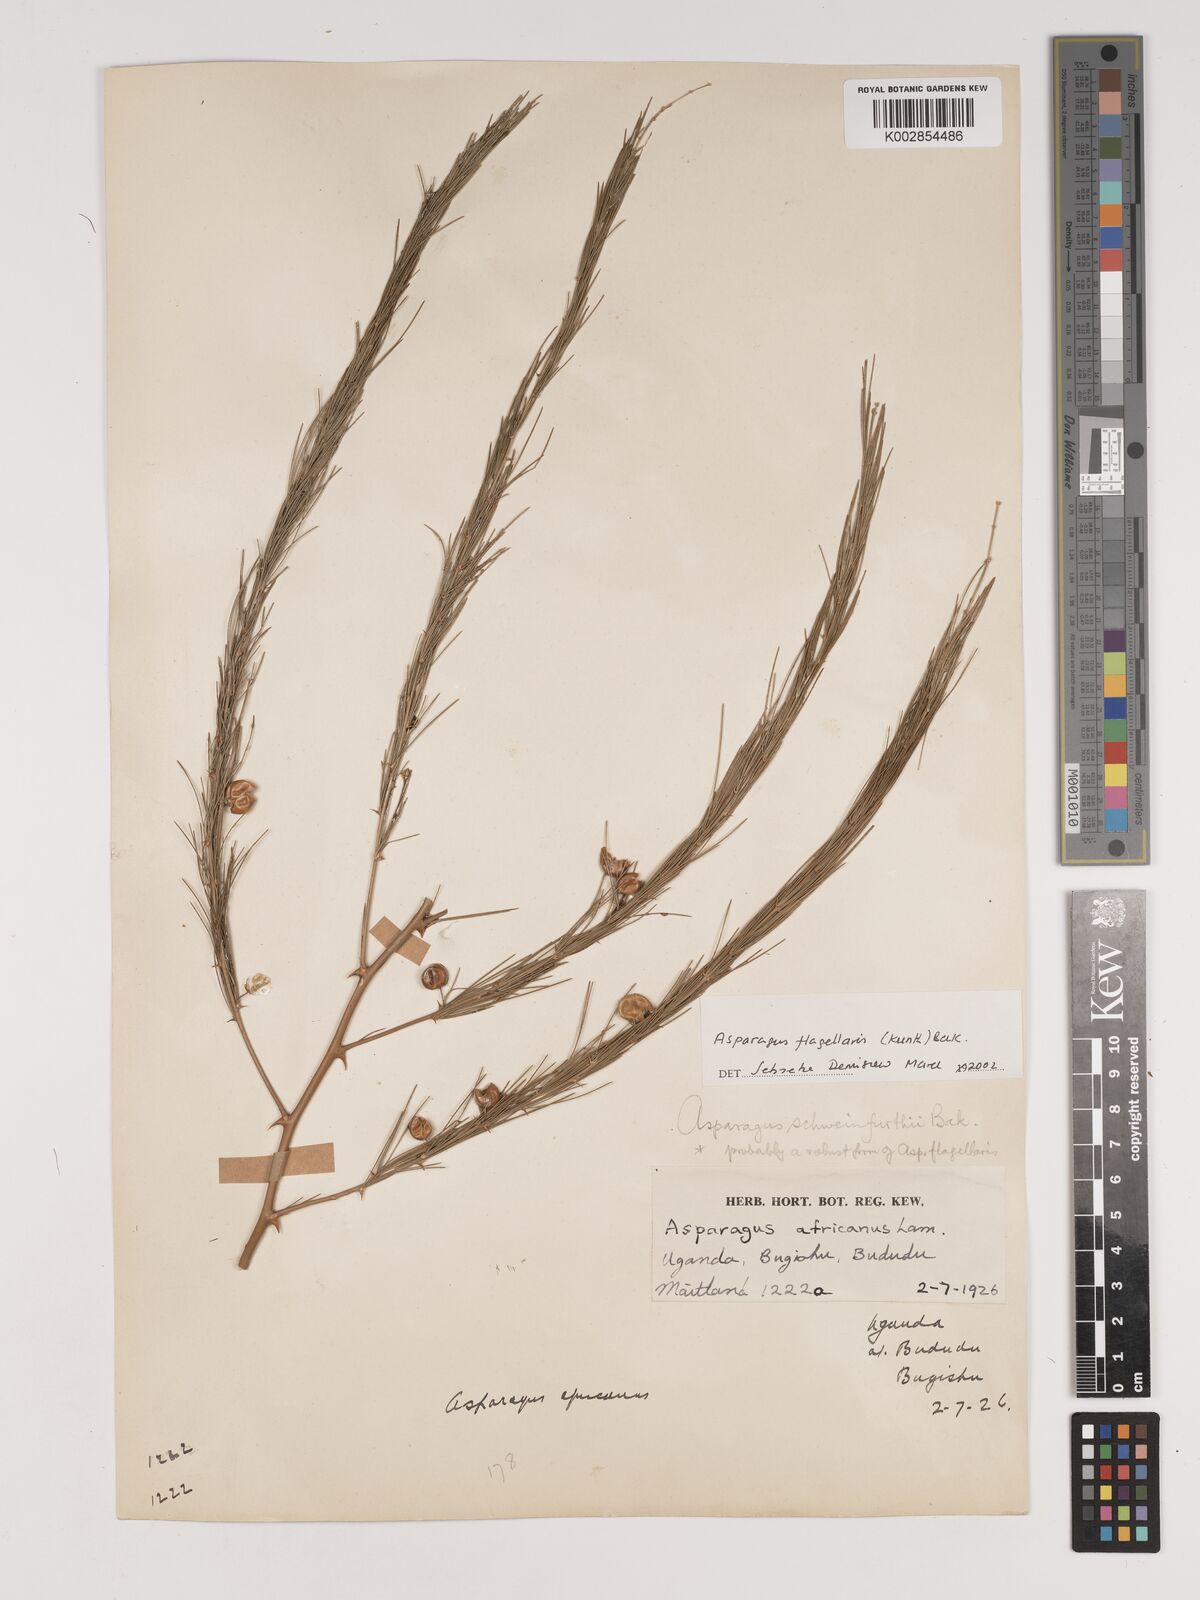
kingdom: Plantae
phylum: Tracheophyta
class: Liliopsida
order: Asparagales
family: Asparagaceae
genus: Asparagus
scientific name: Asparagus flagellaris
